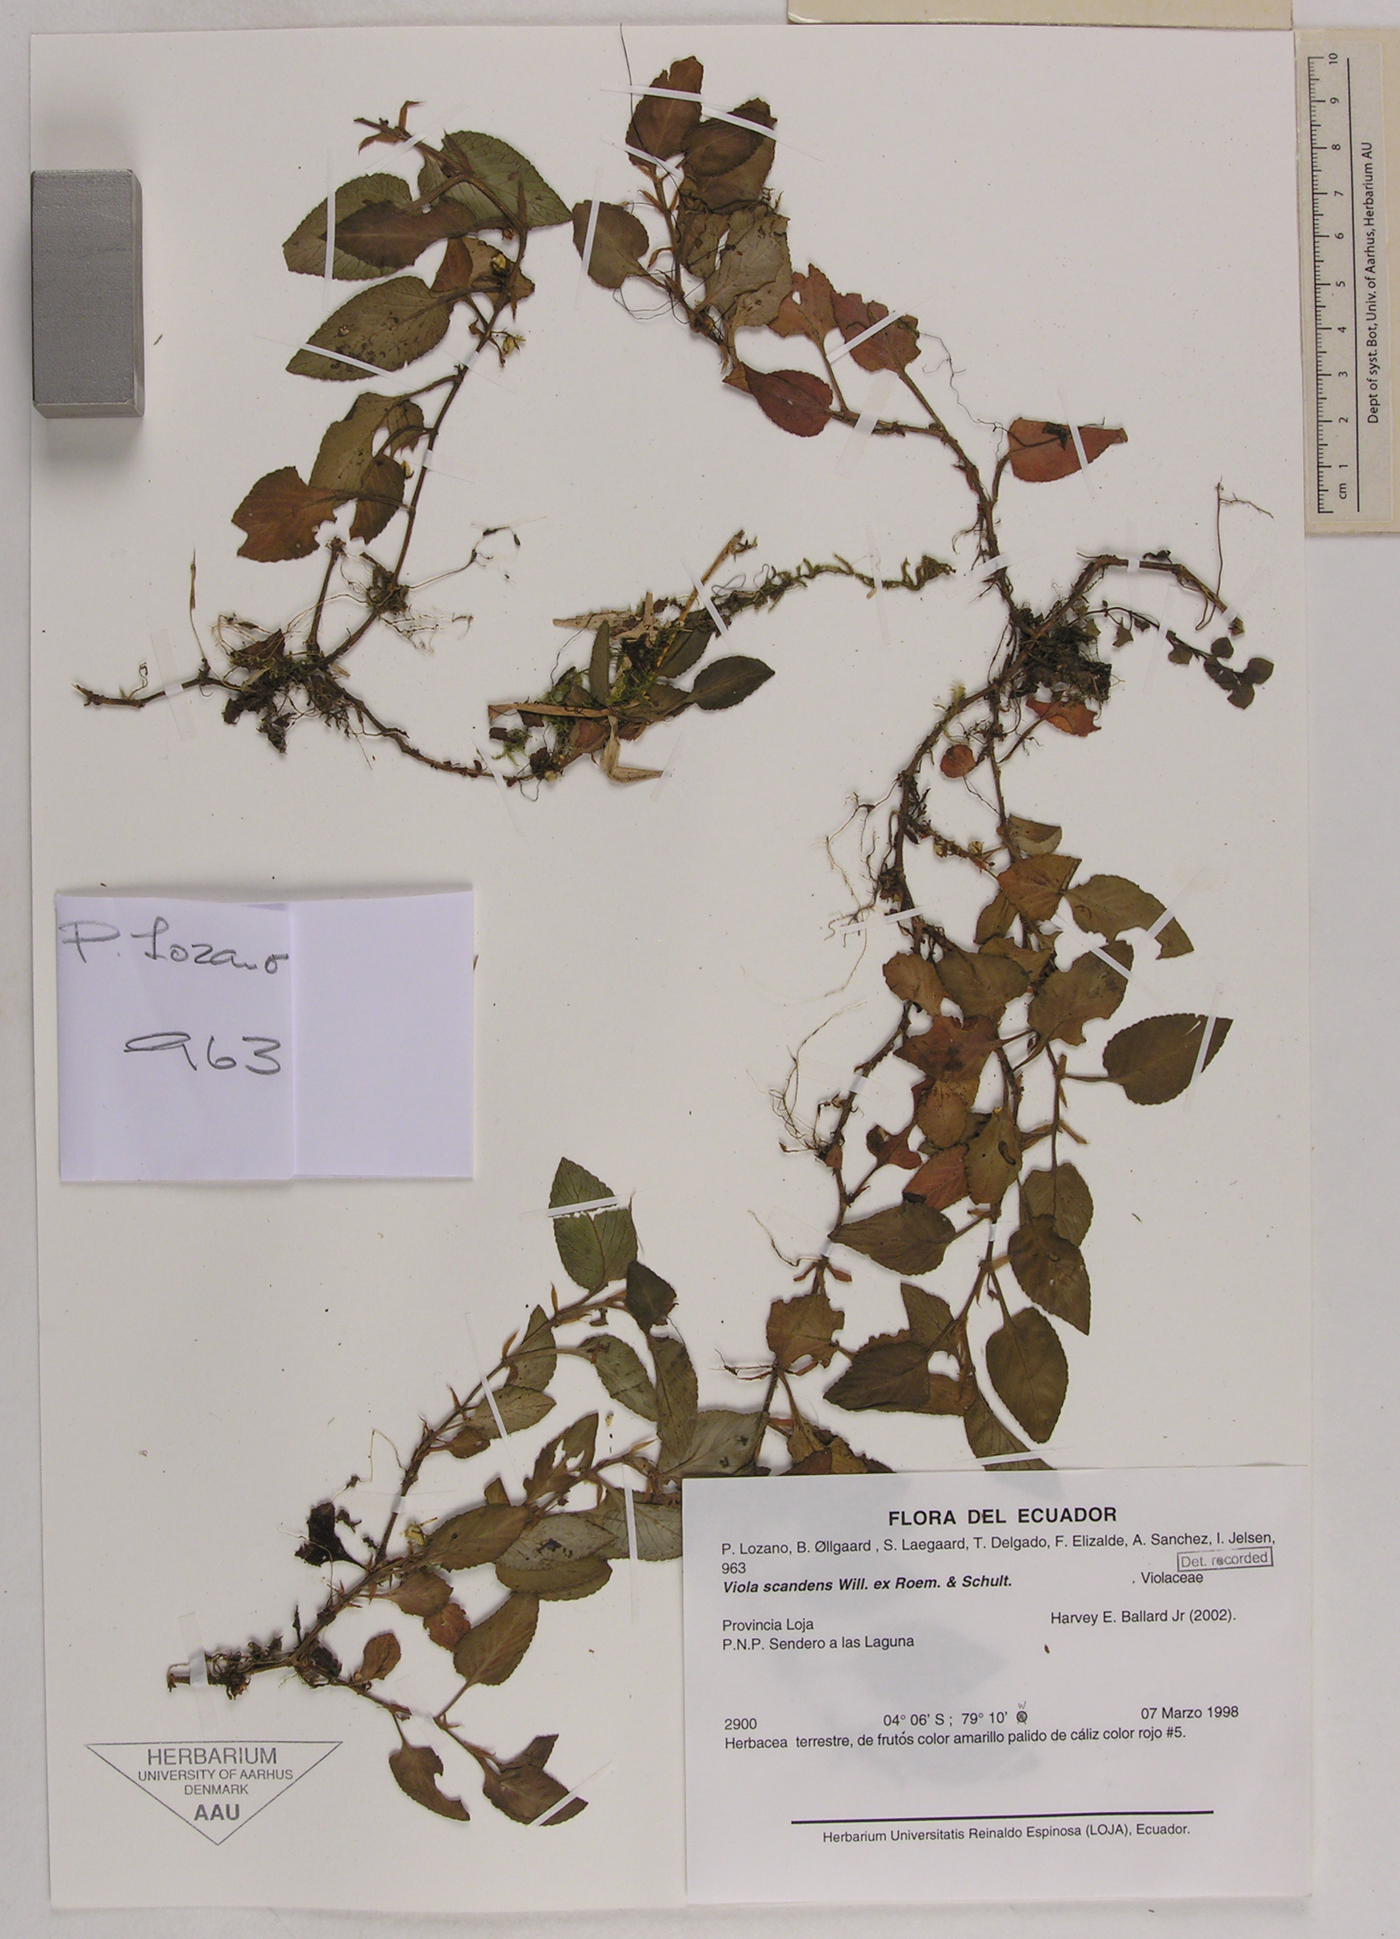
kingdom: Plantae
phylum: Tracheophyta
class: Magnoliopsida
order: Malpighiales
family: Violaceae
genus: Viola
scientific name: Viola scandens
